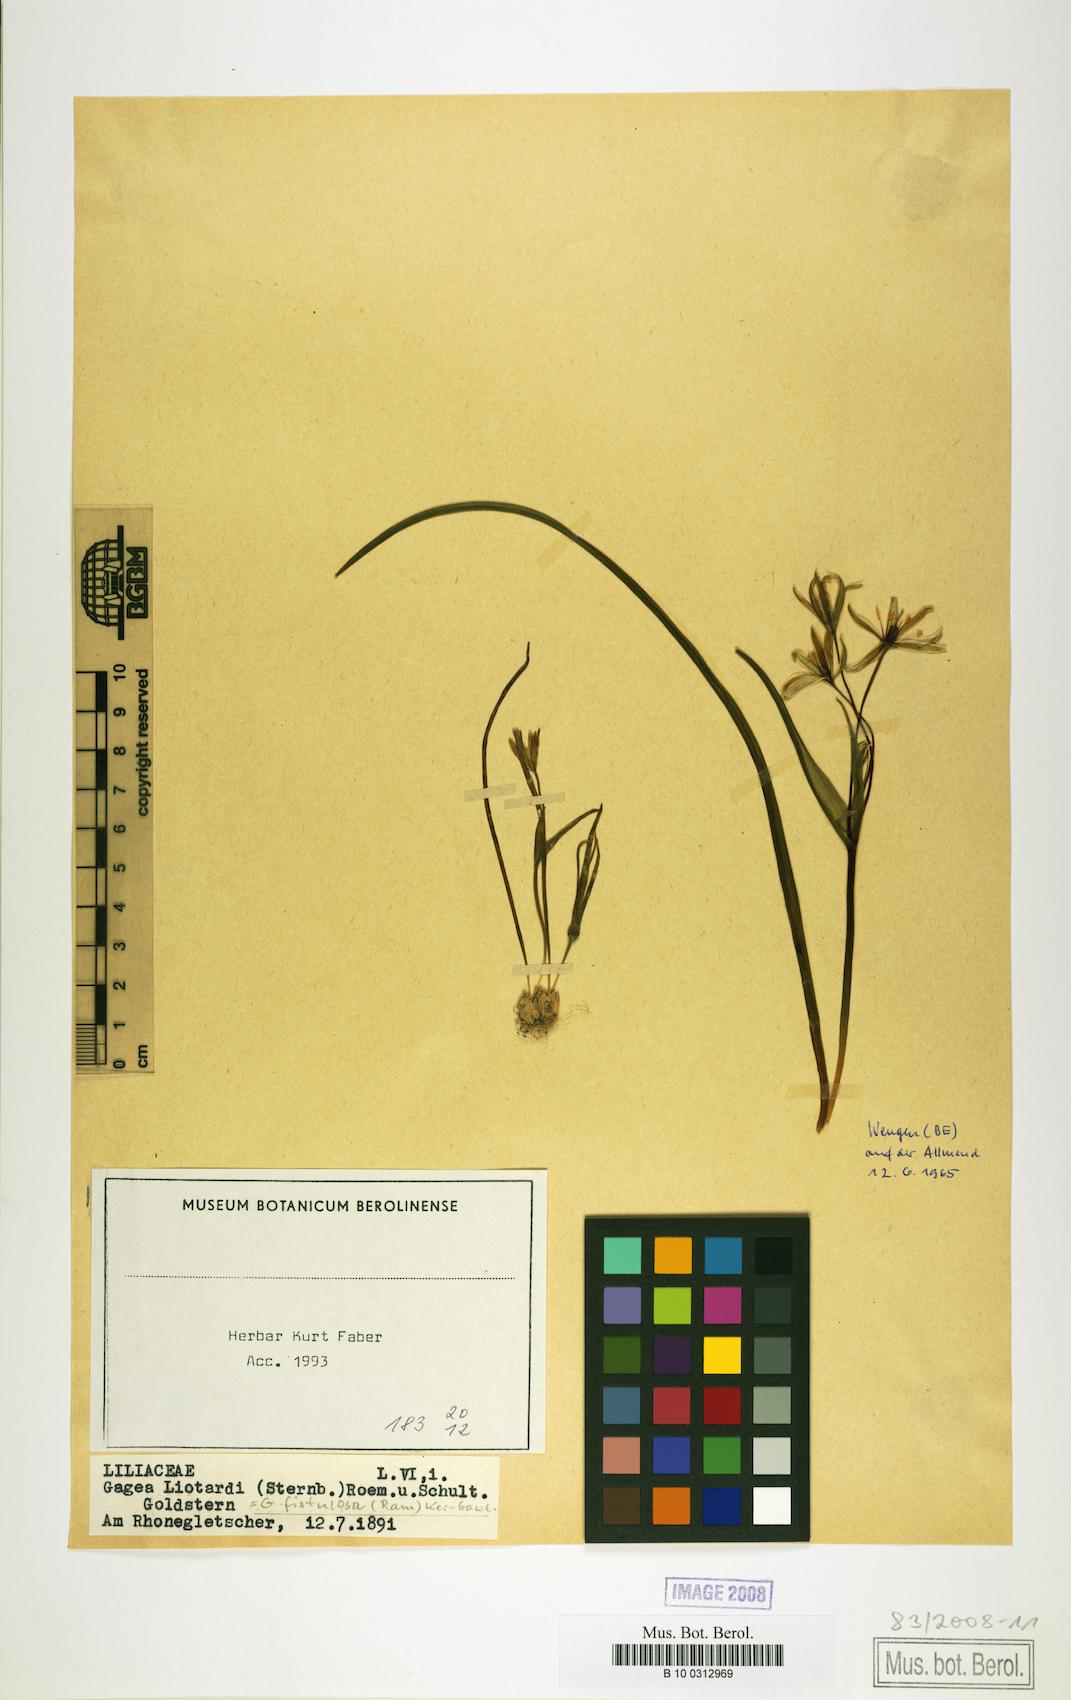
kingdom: Plantae
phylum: Tracheophyta
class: Liliopsida
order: Liliales
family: Liliaceae
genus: Gagea
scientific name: Gagea bohemica
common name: Early star-of-bethlehem
